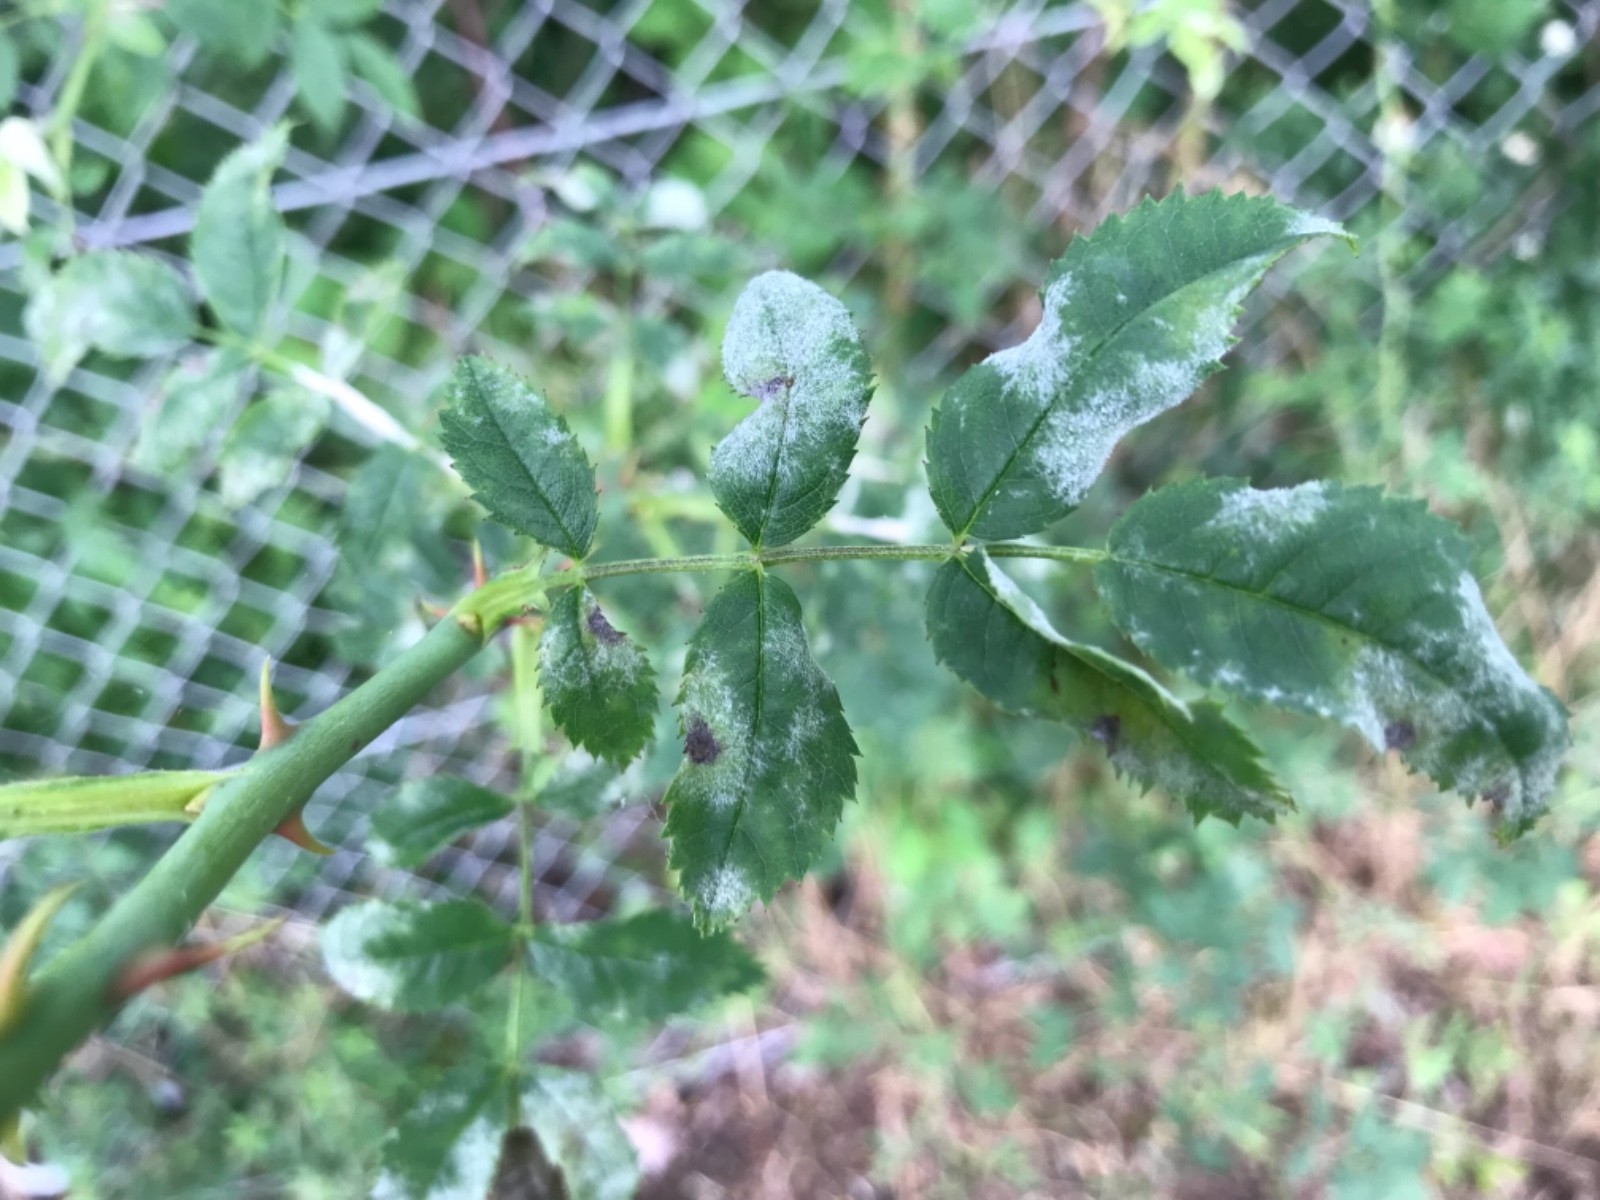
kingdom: Fungi
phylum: Ascomycota
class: Leotiomycetes
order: Helotiales
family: Erysiphaceae
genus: Podosphaera
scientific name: Podosphaera pannosa
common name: Rose mildew
